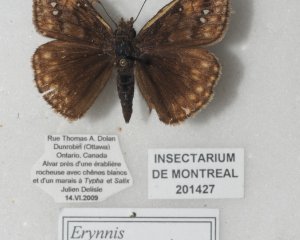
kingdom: Animalia
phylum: Arthropoda
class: Insecta
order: Lepidoptera
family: Hesperiidae
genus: Gesta
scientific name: Gesta
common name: Juvenal's Duskywing
